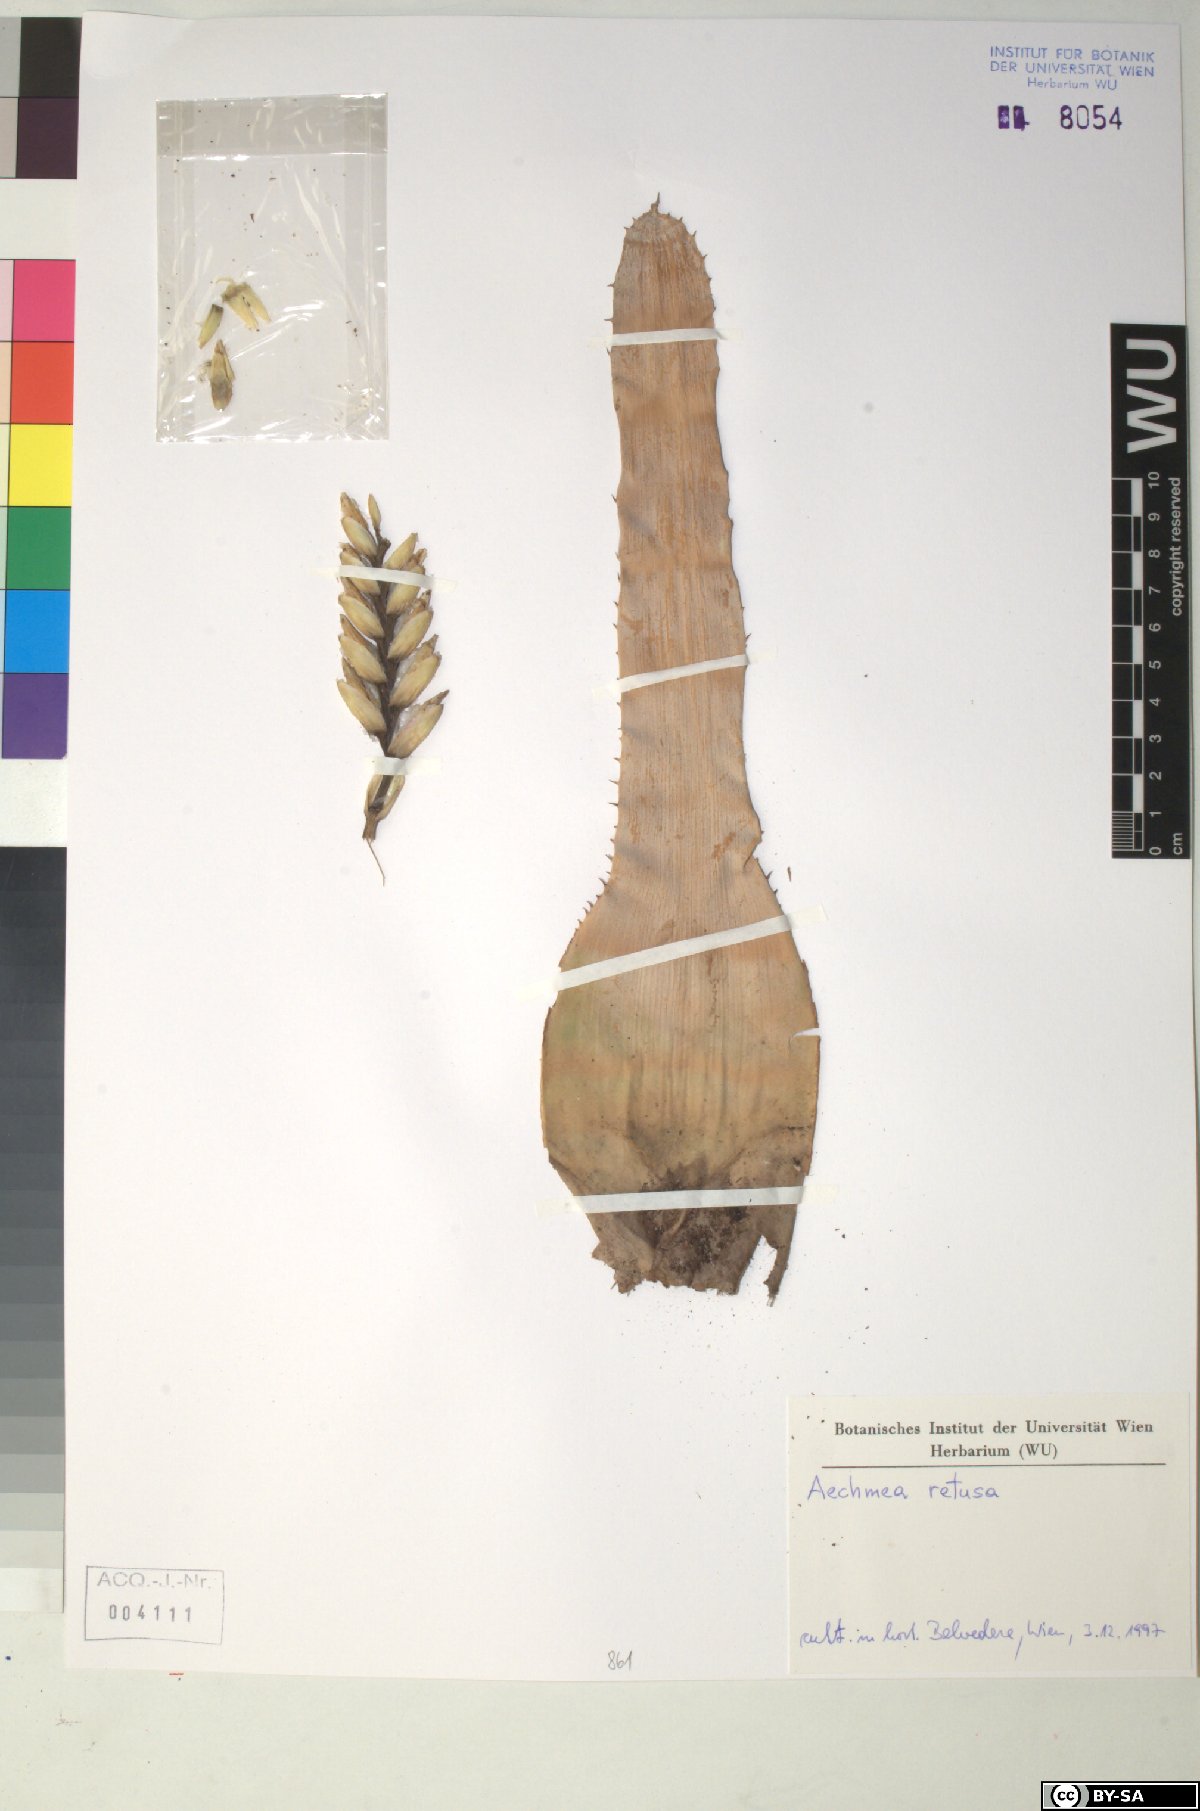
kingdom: Plantae
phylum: Tracheophyta
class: Liliopsida
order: Poales
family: Bromeliaceae
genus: Aechmea
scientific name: Aechmea
